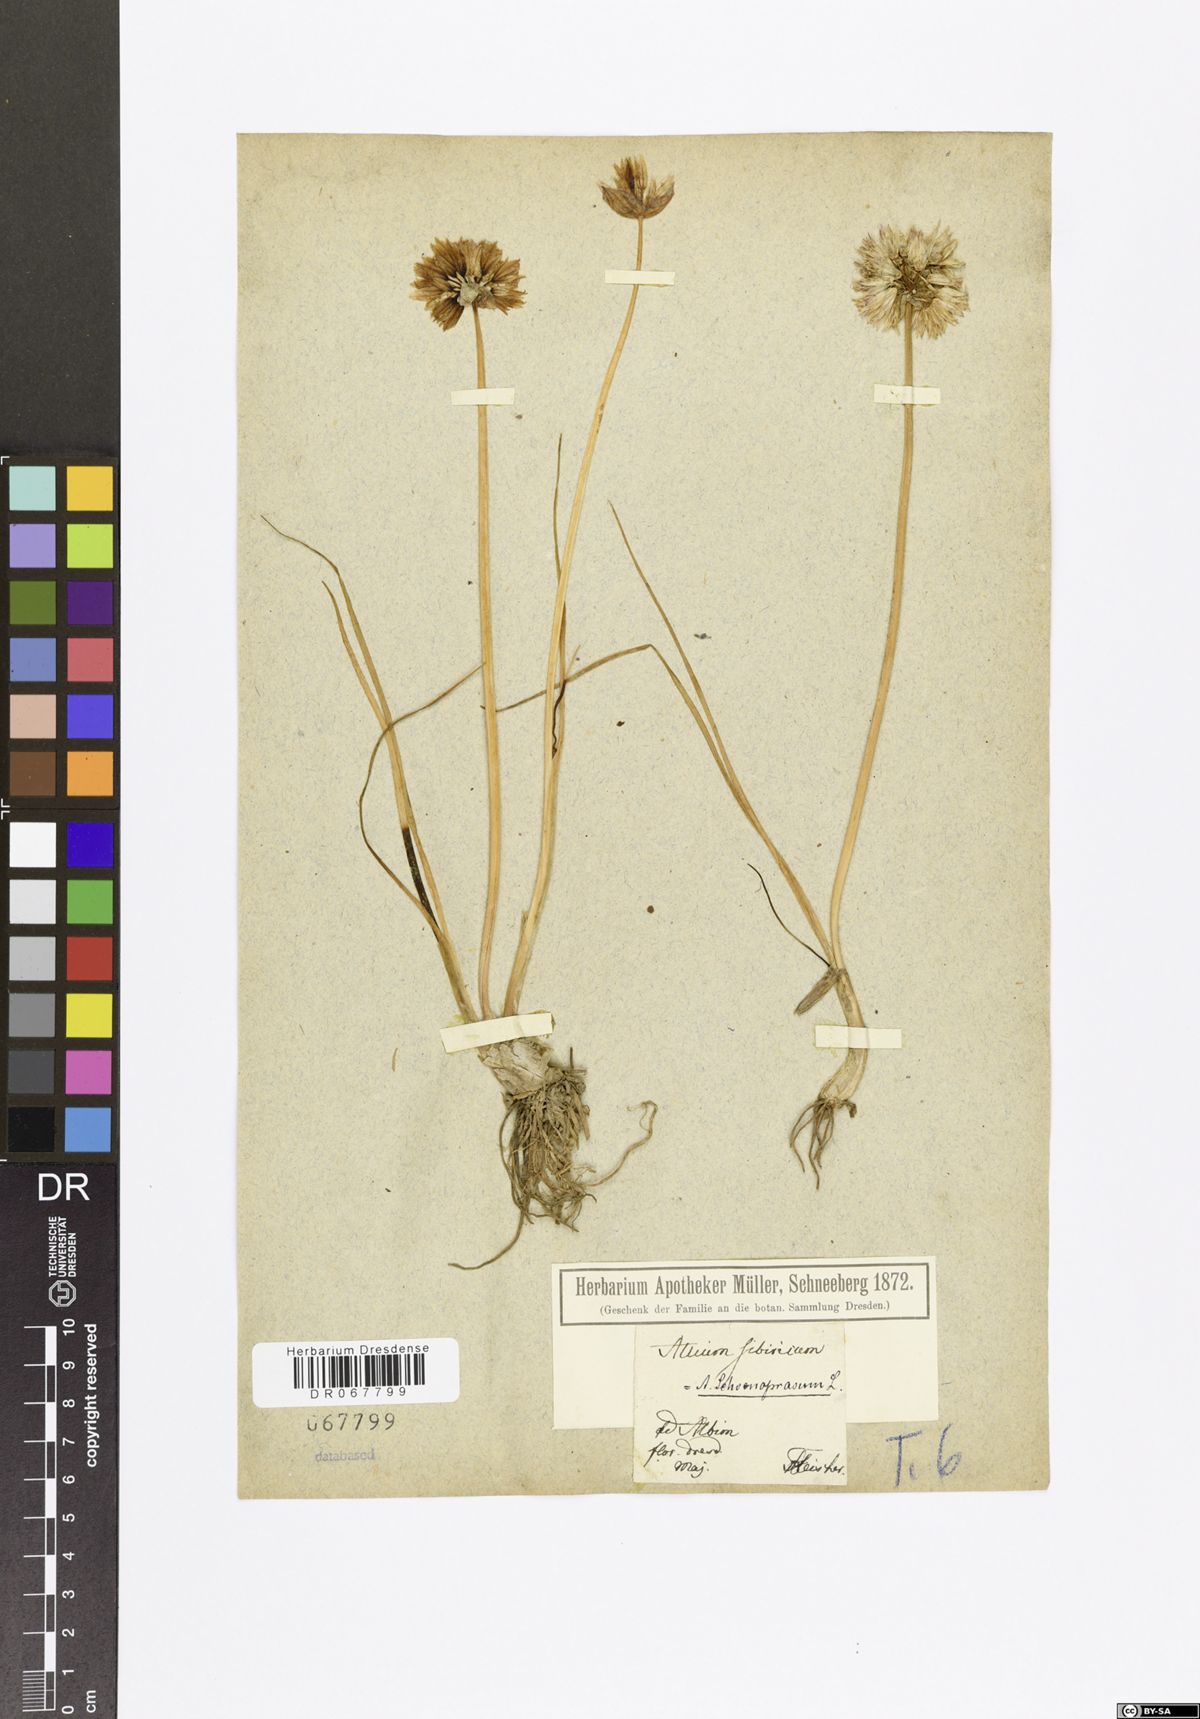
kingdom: Plantae
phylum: Tracheophyta
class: Liliopsida
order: Asparagales
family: Amaryllidaceae
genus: Allium
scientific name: Allium schoenoprasum
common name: Chives
